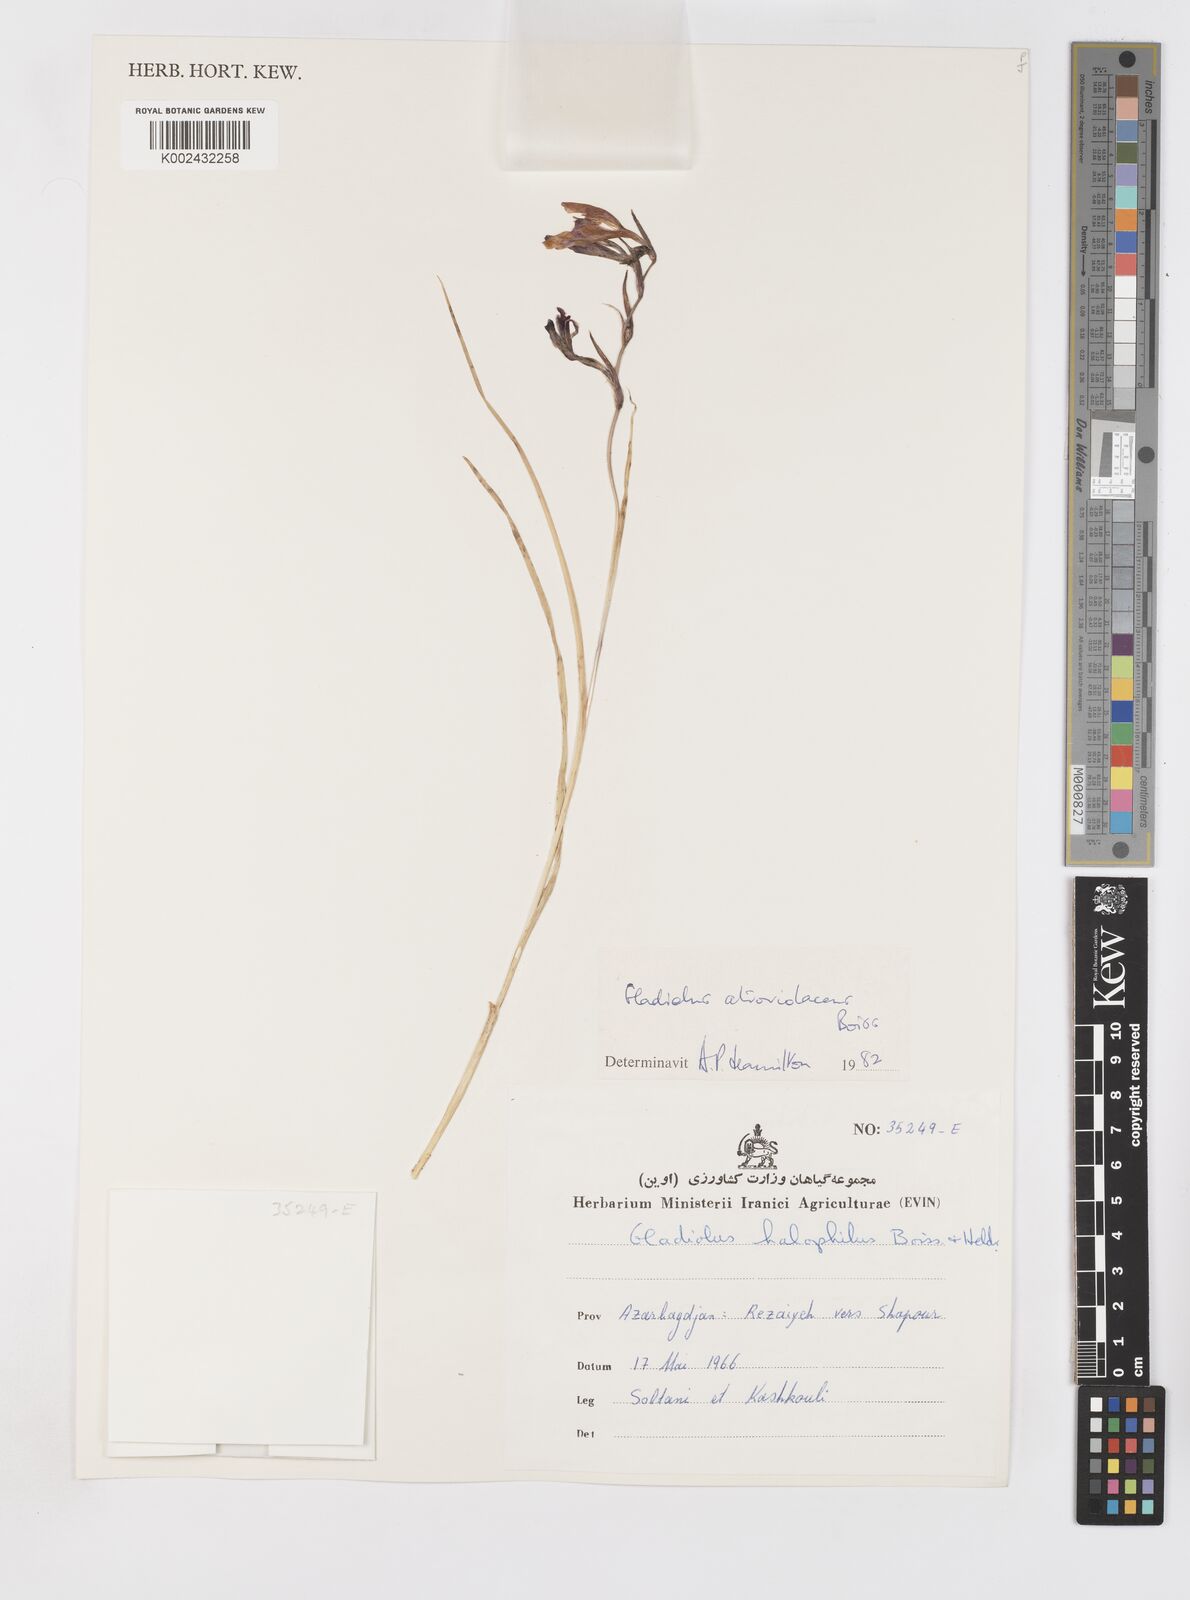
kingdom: Plantae
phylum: Tracheophyta
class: Liliopsida
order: Asparagales
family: Iridaceae
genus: Gladiolus
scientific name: Gladiolus atroviolaceus
